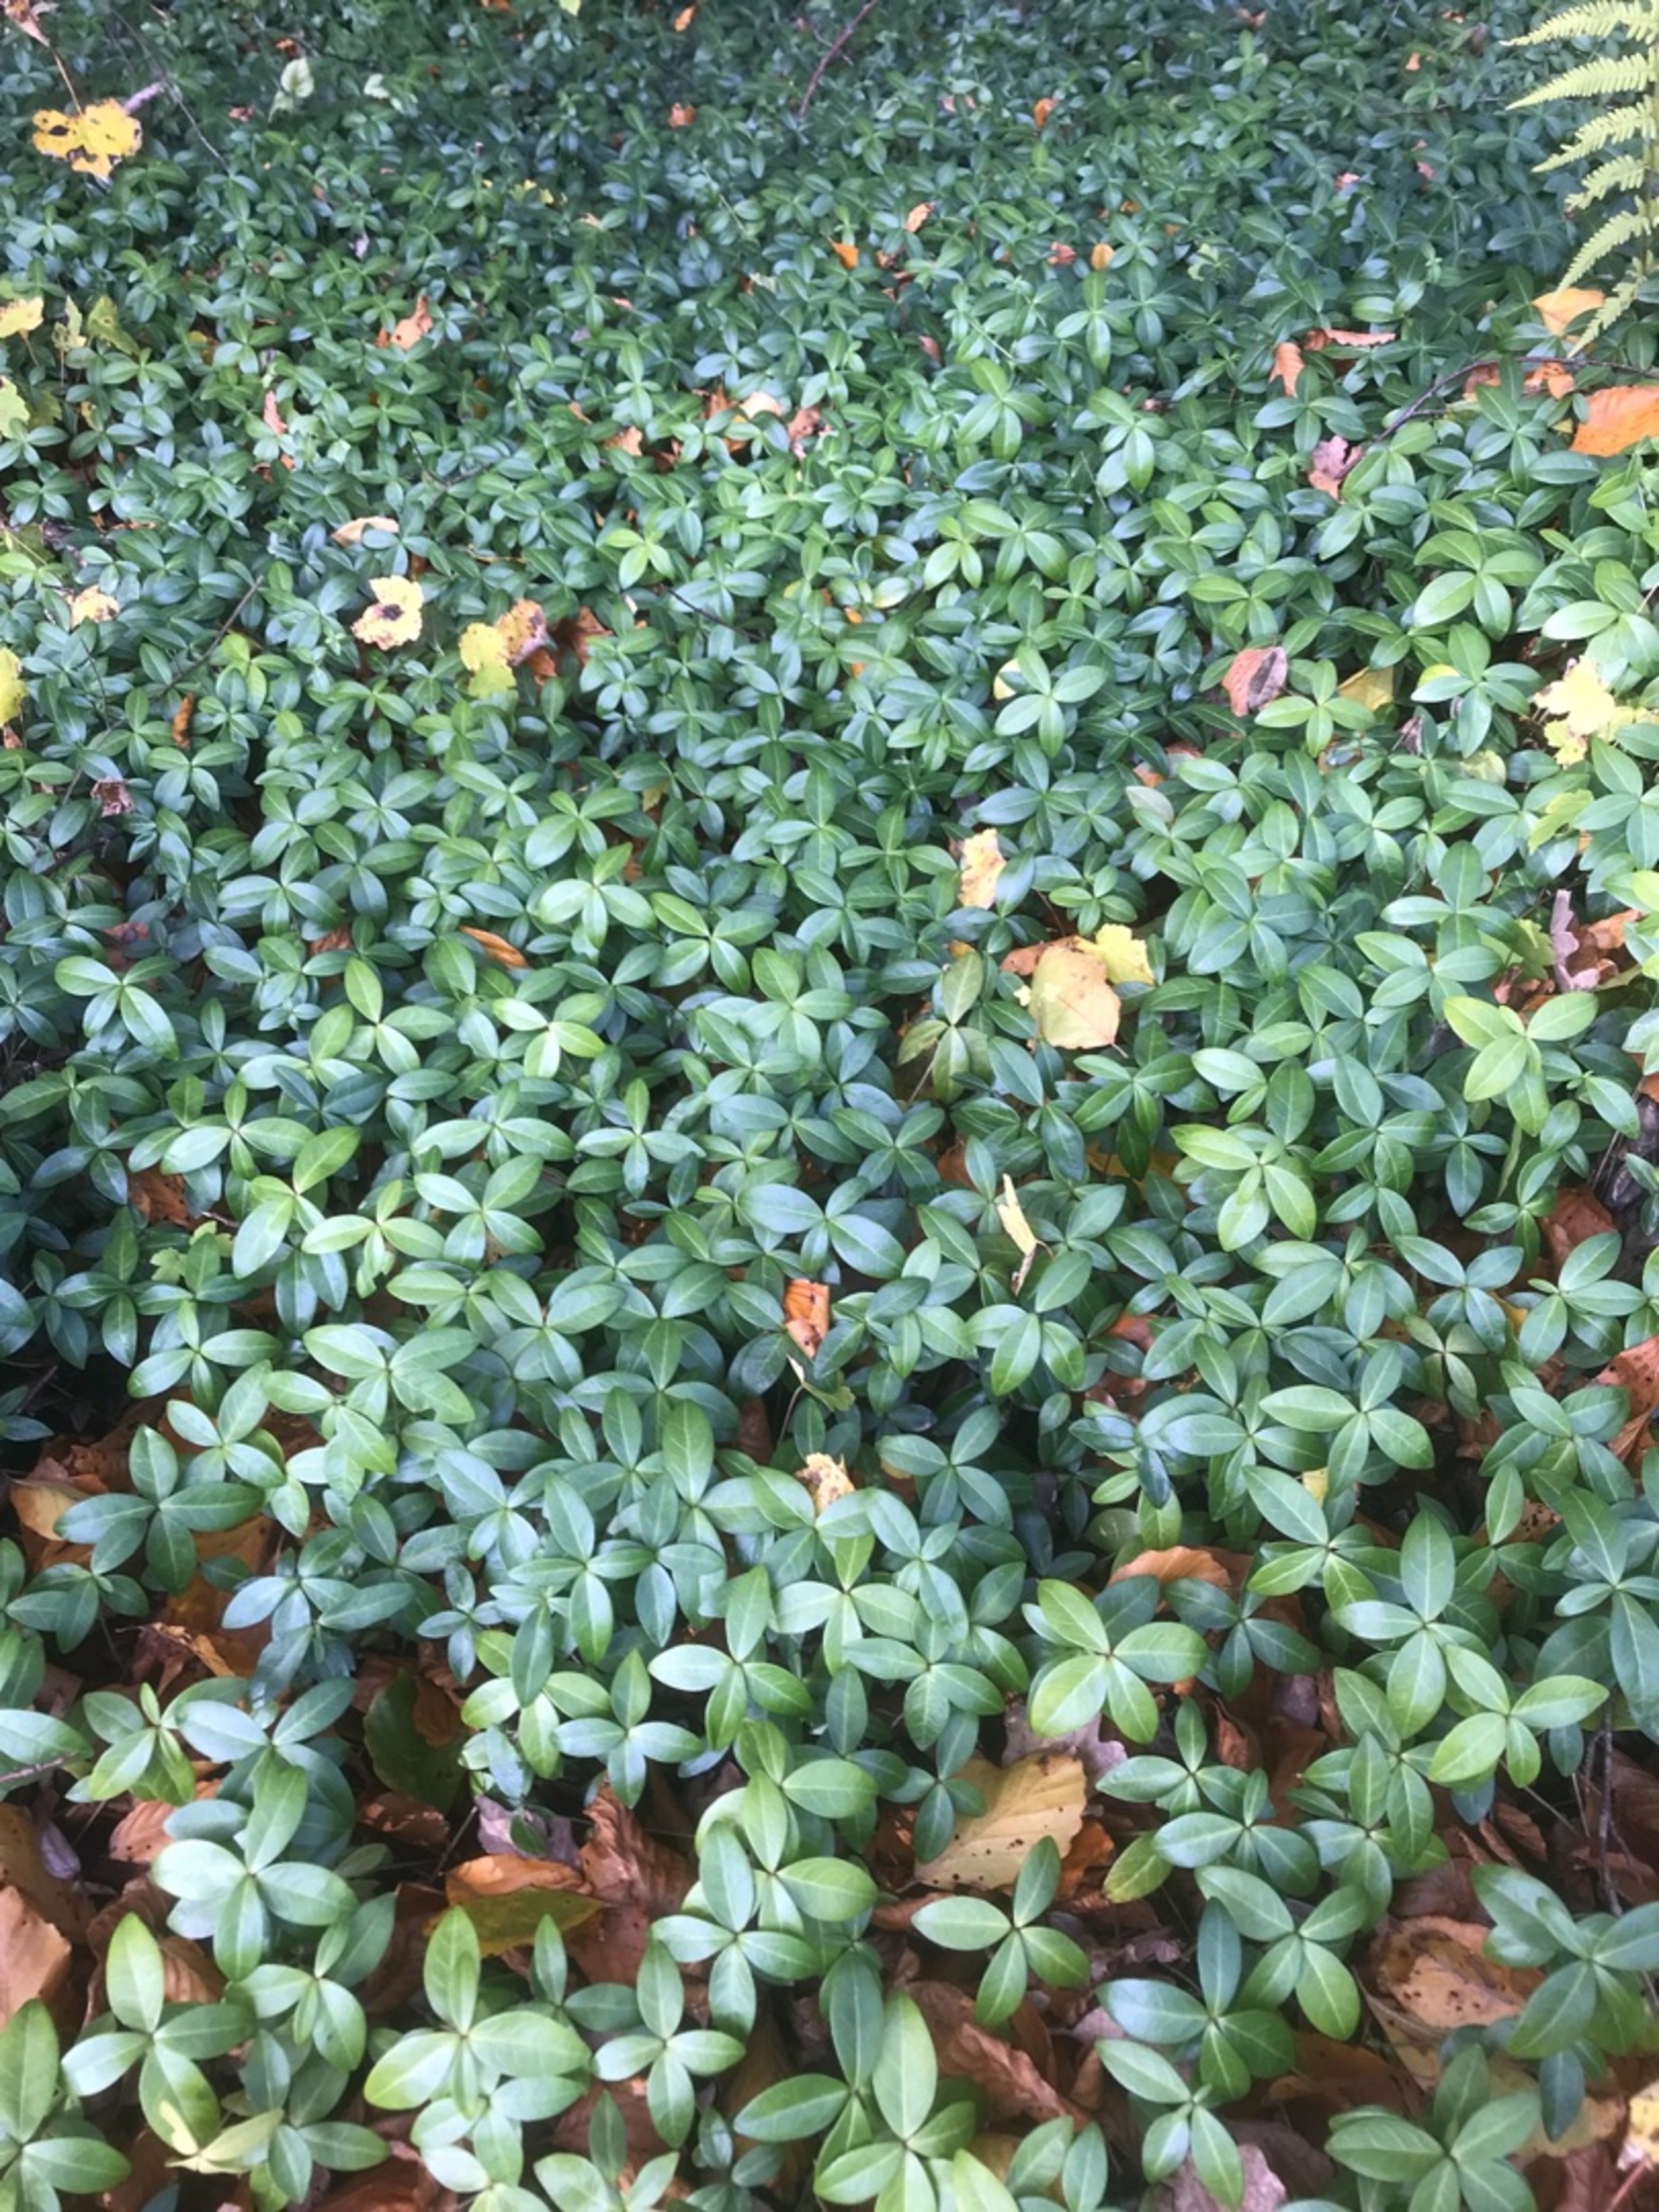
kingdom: Plantae
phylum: Tracheophyta
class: Magnoliopsida
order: Gentianales
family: Apocynaceae
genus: Vinca
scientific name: Vinca minor
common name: Liden singrøn
